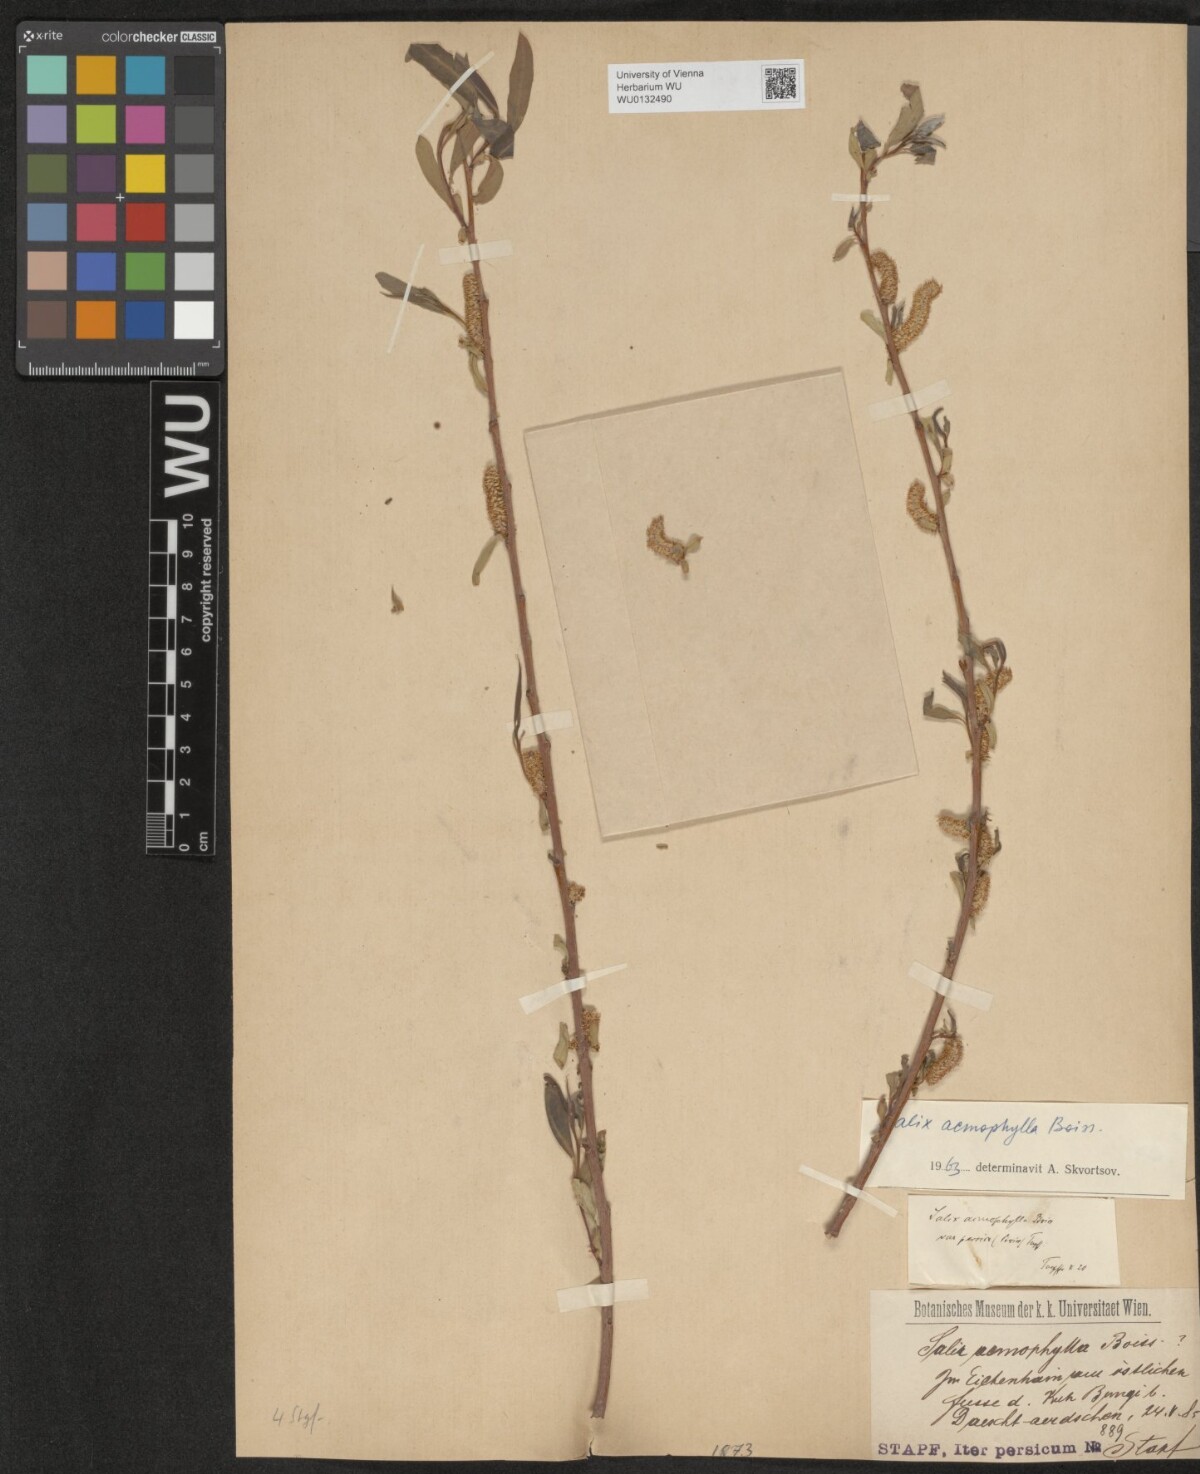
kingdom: Plantae
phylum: Tracheophyta
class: Magnoliopsida
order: Malpighiales
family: Salicaceae
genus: Salix
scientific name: Salix acmophylla
